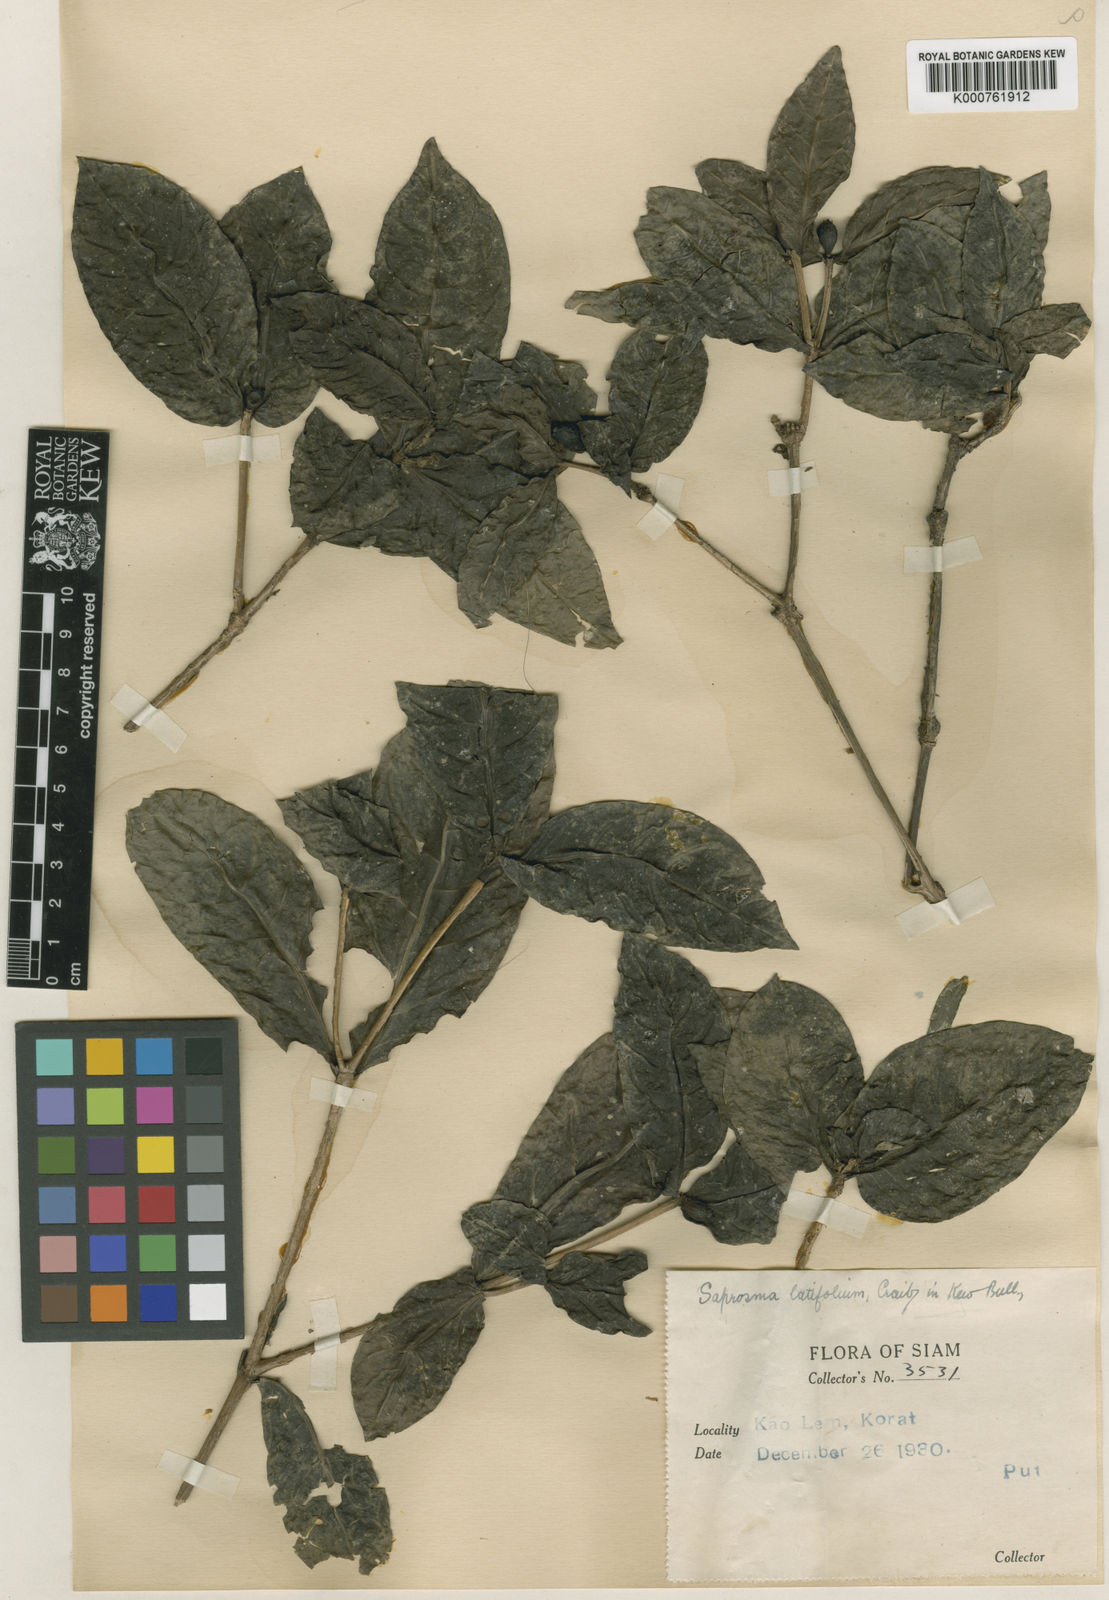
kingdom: Plantae
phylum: Tracheophyta
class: Magnoliopsida
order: Gentianales
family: Rubiaceae
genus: Saprosma
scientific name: Saprosma latifolia
